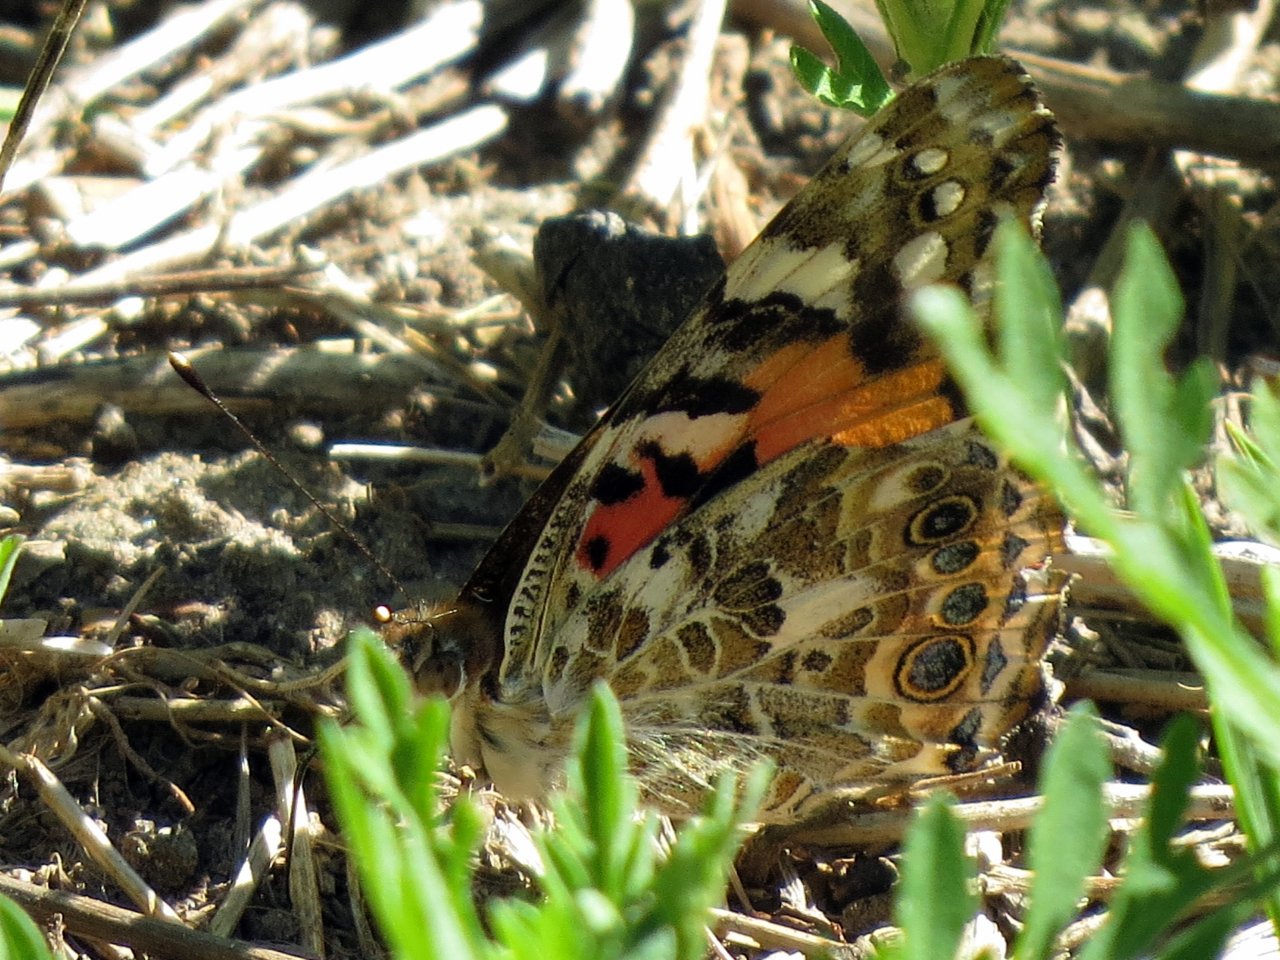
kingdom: Animalia
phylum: Arthropoda
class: Insecta
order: Lepidoptera
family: Nymphalidae
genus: Vanessa
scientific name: Vanessa cardui
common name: Painted Lady
